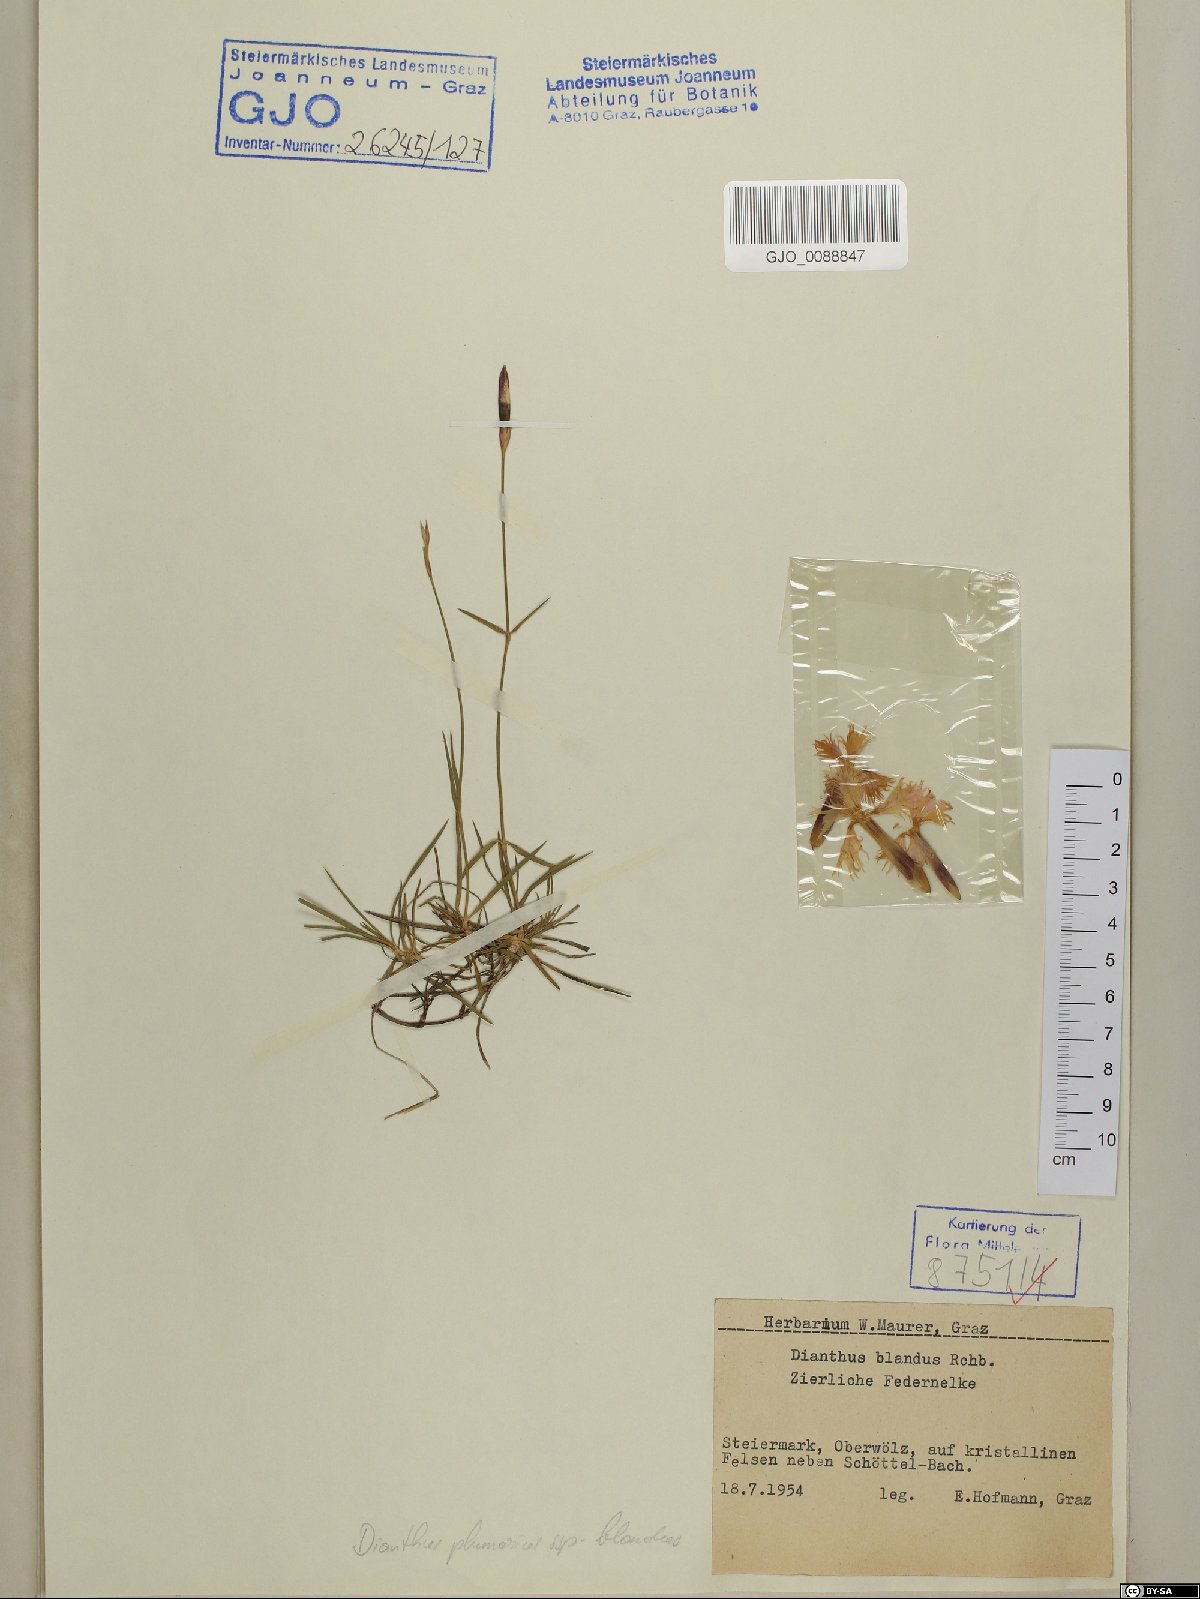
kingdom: Plantae
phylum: Tracheophyta
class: Magnoliopsida
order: Caryophyllales
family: Caryophyllaceae
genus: Dianthus
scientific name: Dianthus plumarius
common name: Pink
